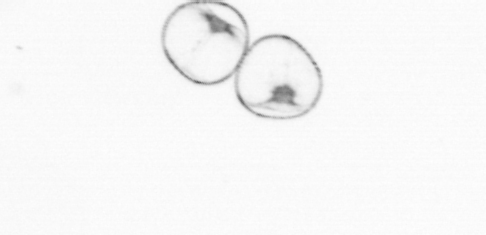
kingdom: Chromista
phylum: Myzozoa
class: Dinophyceae
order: Noctilucales
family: Noctilucaceae
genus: Noctiluca
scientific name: Noctiluca scintillans
